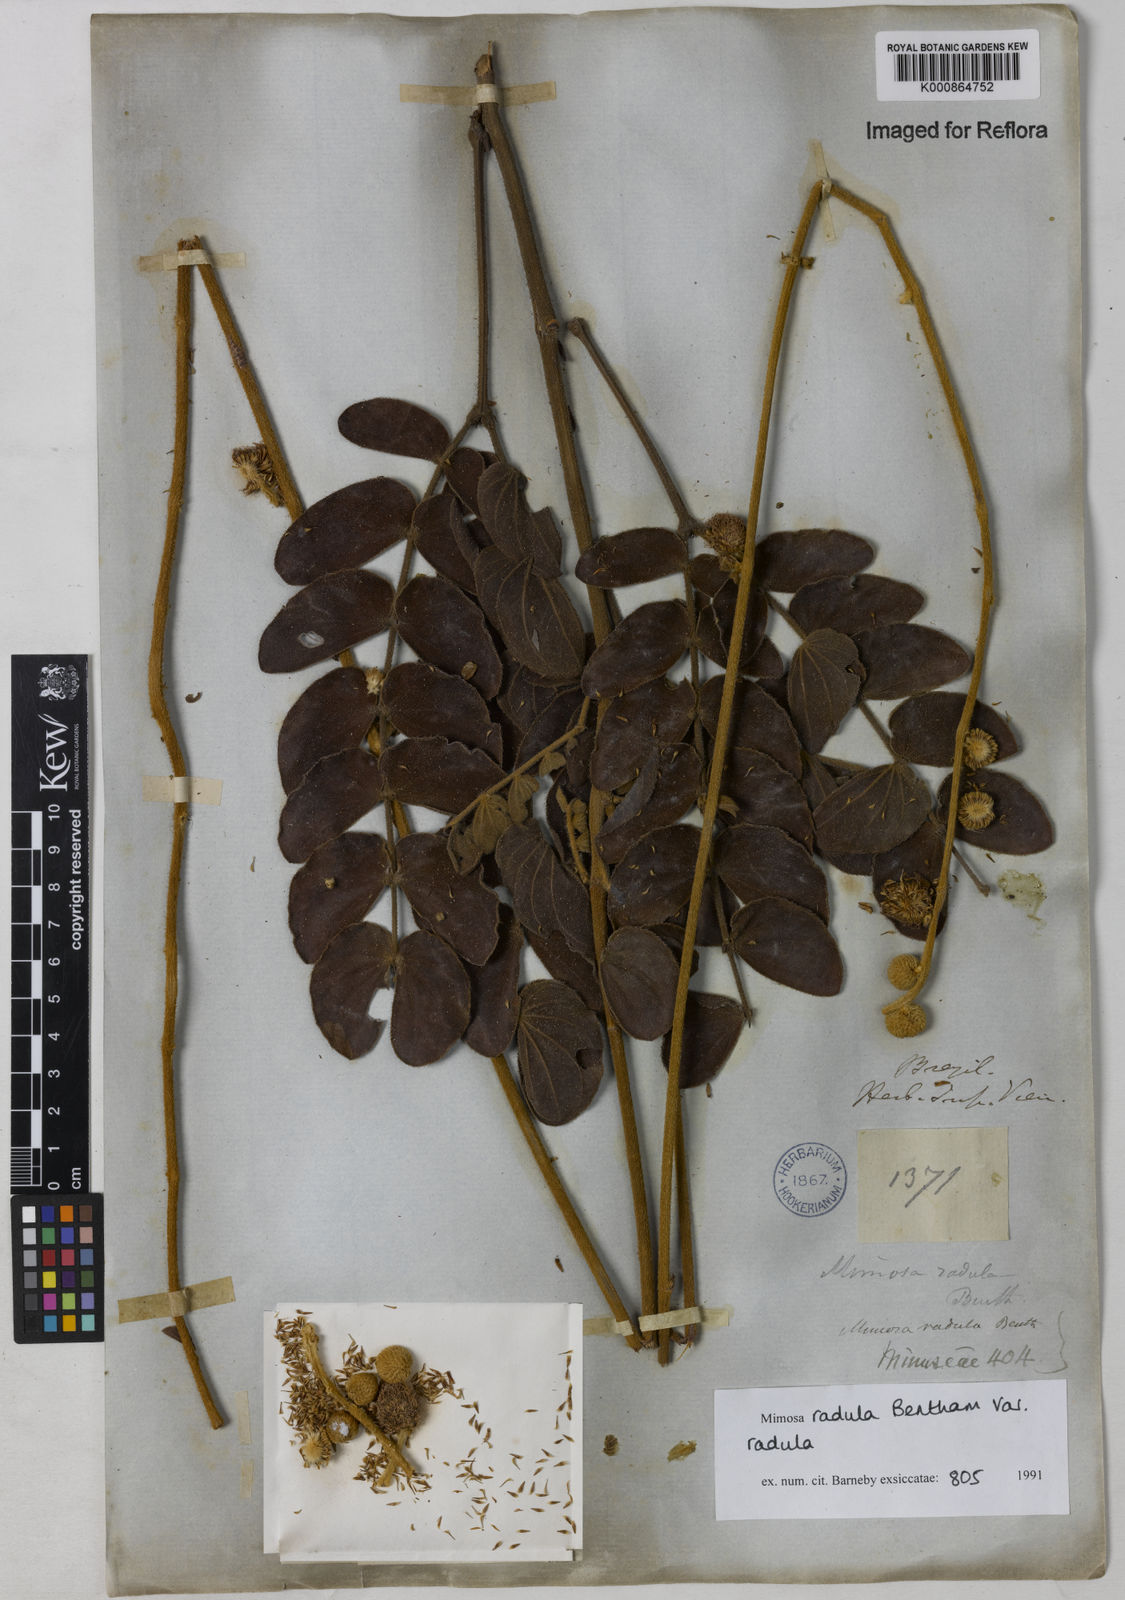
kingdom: Plantae
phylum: Tracheophyta
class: Magnoliopsida
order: Fabales
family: Fabaceae
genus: Mimosa
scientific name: Mimosa radula
